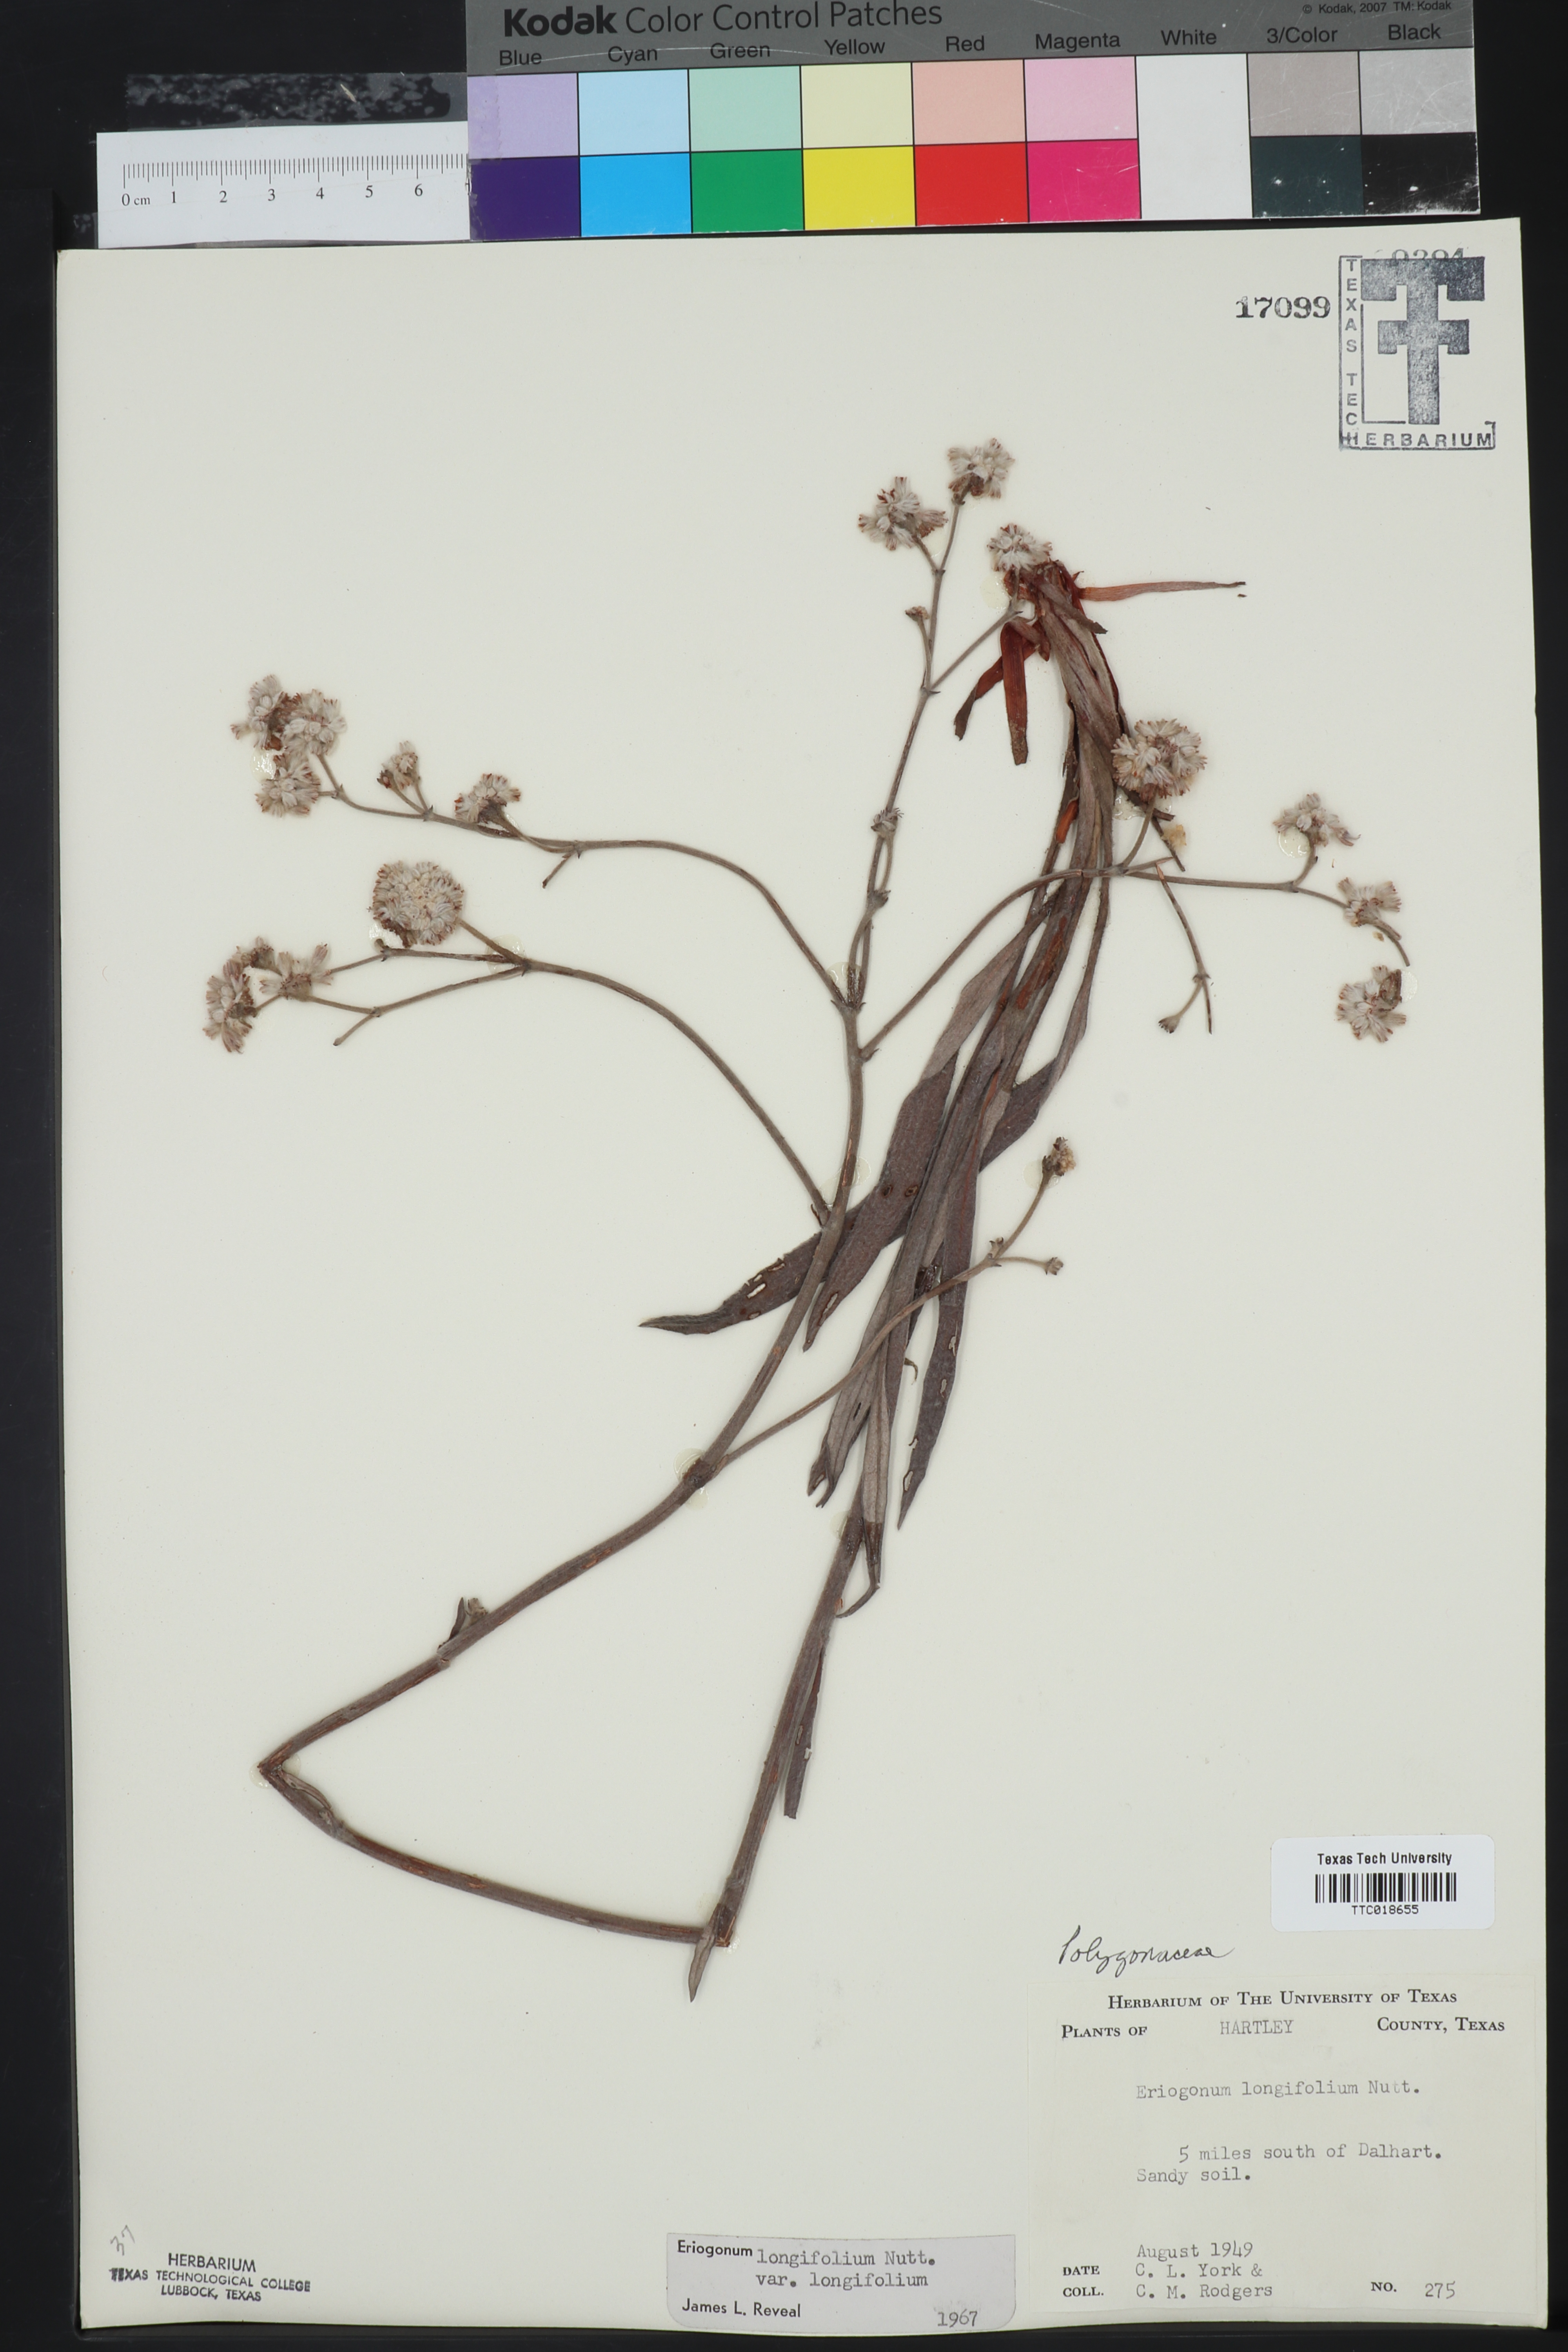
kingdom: Plantae
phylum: Tracheophyta
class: Magnoliopsida
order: Caryophyllales
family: Polygonaceae
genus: Eriogonum
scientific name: Eriogonum longifolium
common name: Longleaf wild buckwheat
